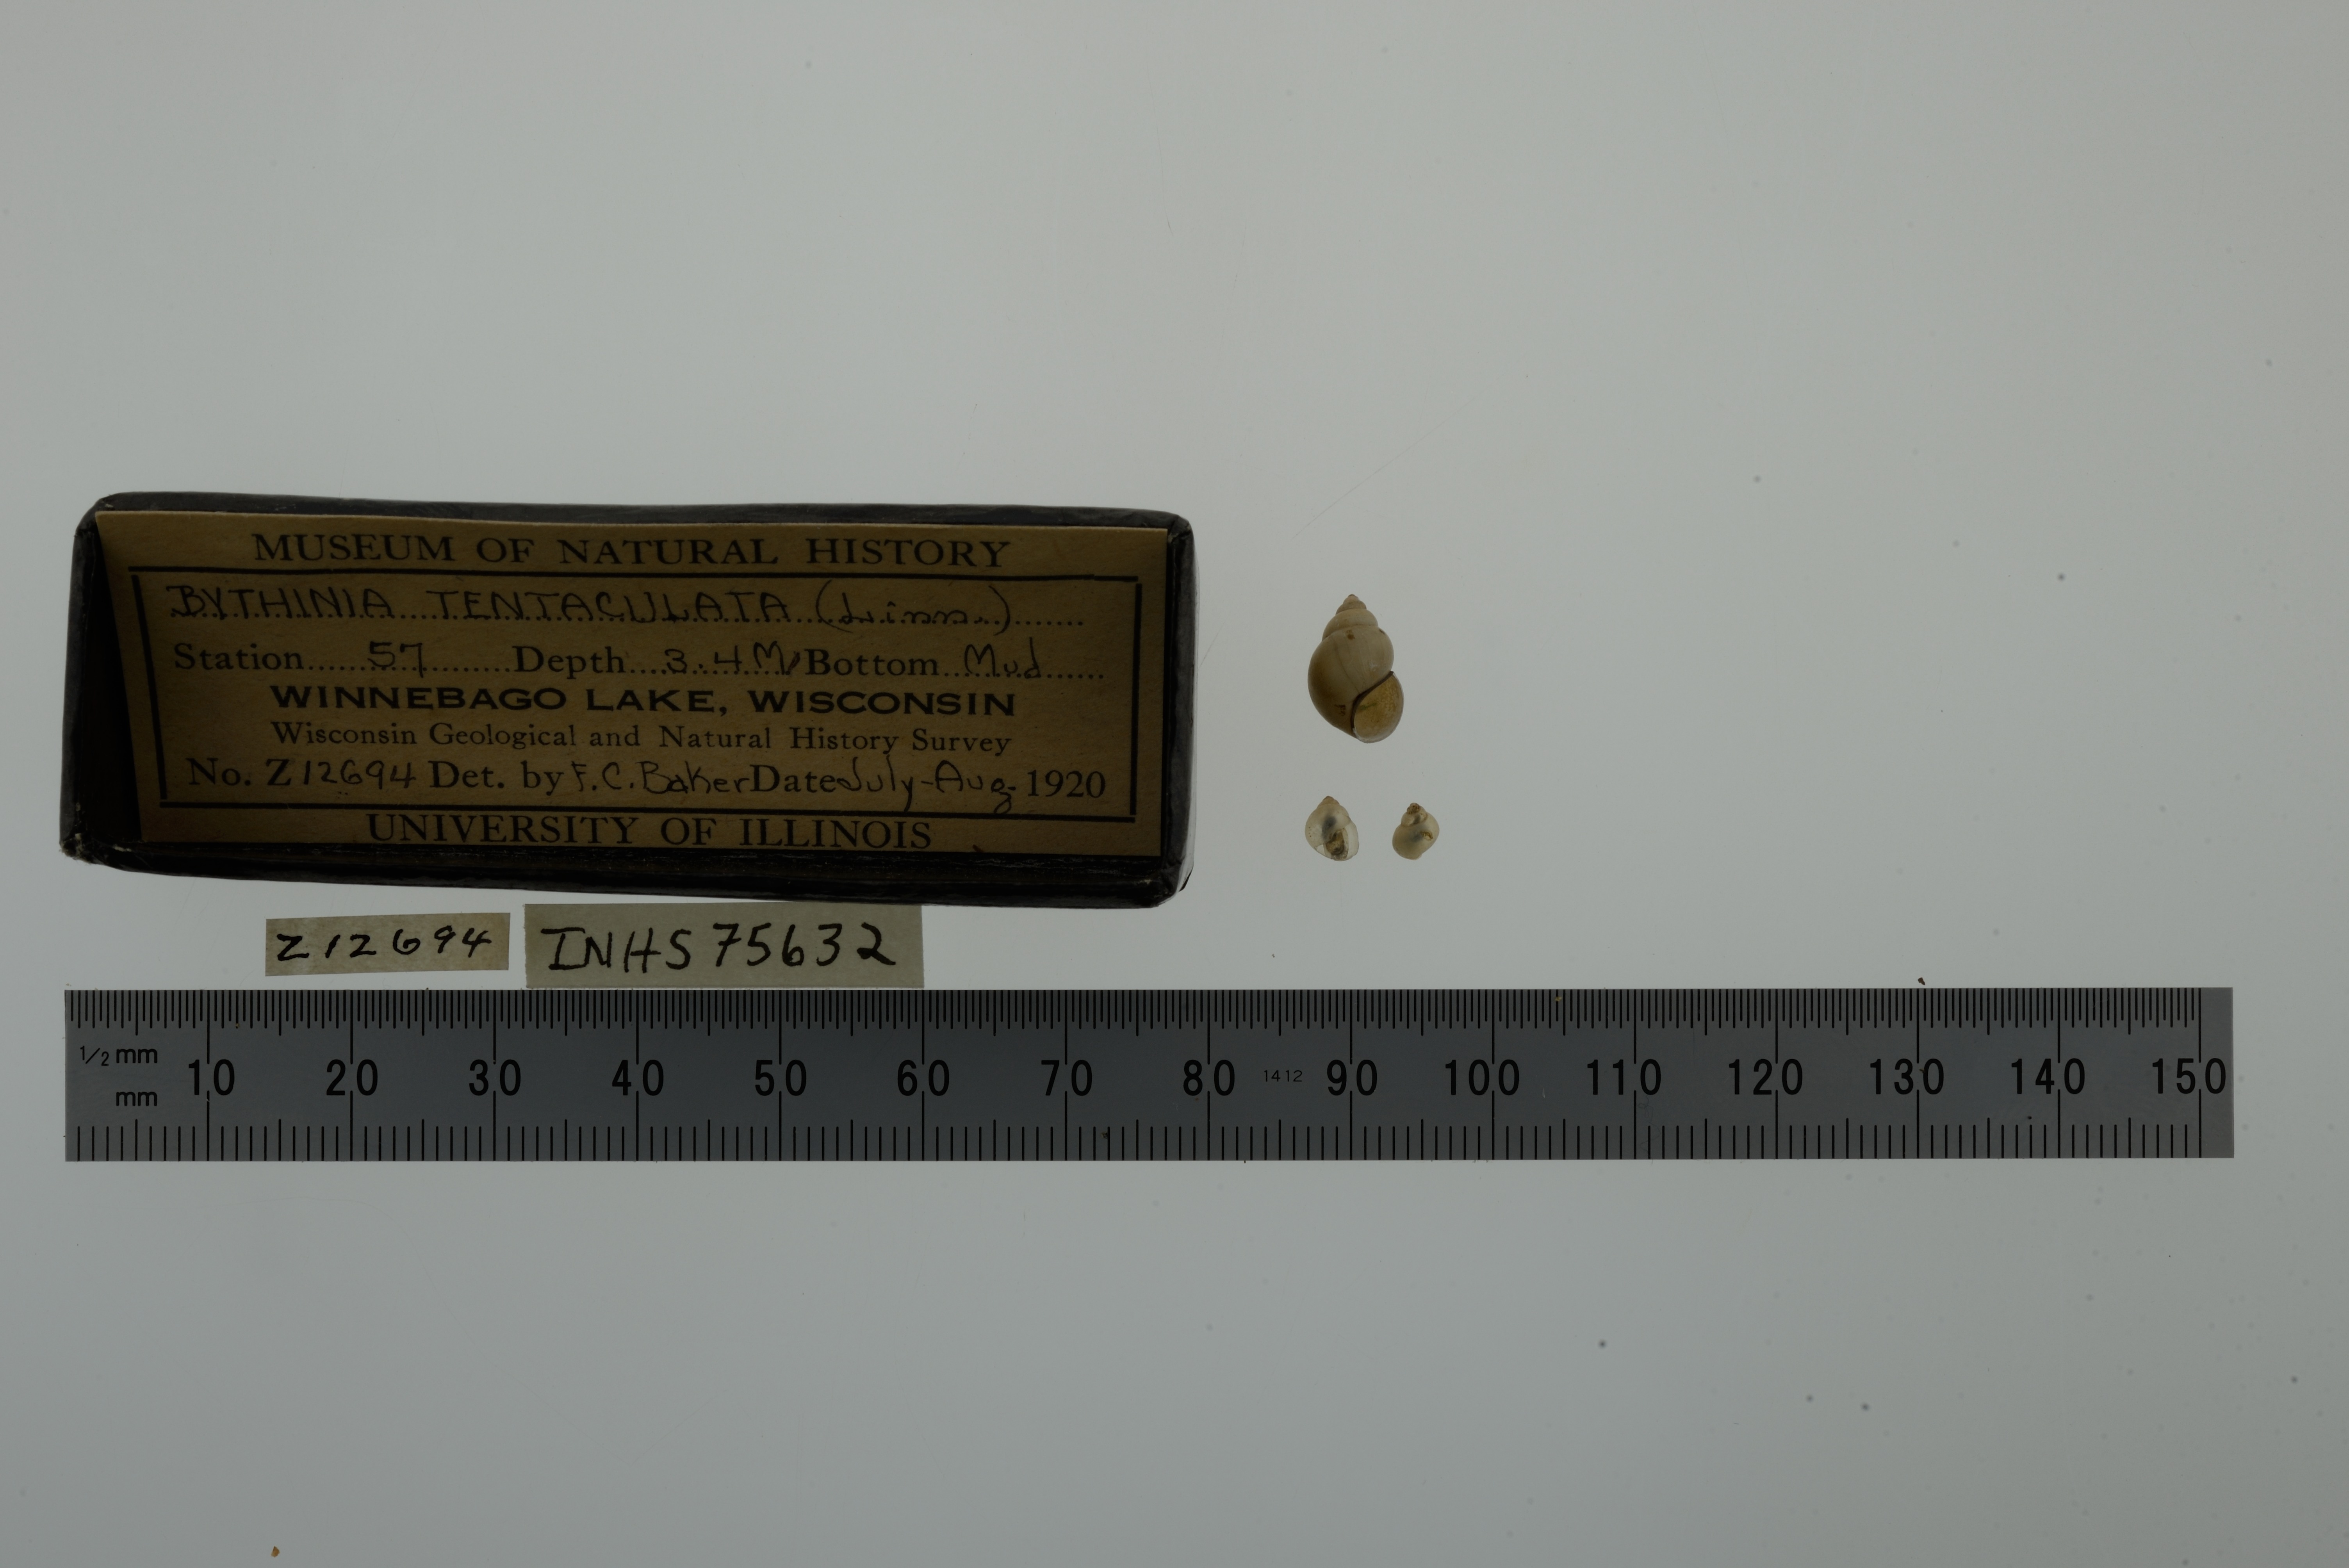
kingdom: Animalia
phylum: Mollusca
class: Gastropoda
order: Littorinimorpha
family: Bithyniidae
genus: Bithynia
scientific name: Bithynia tentaculata
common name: Common bithynia
